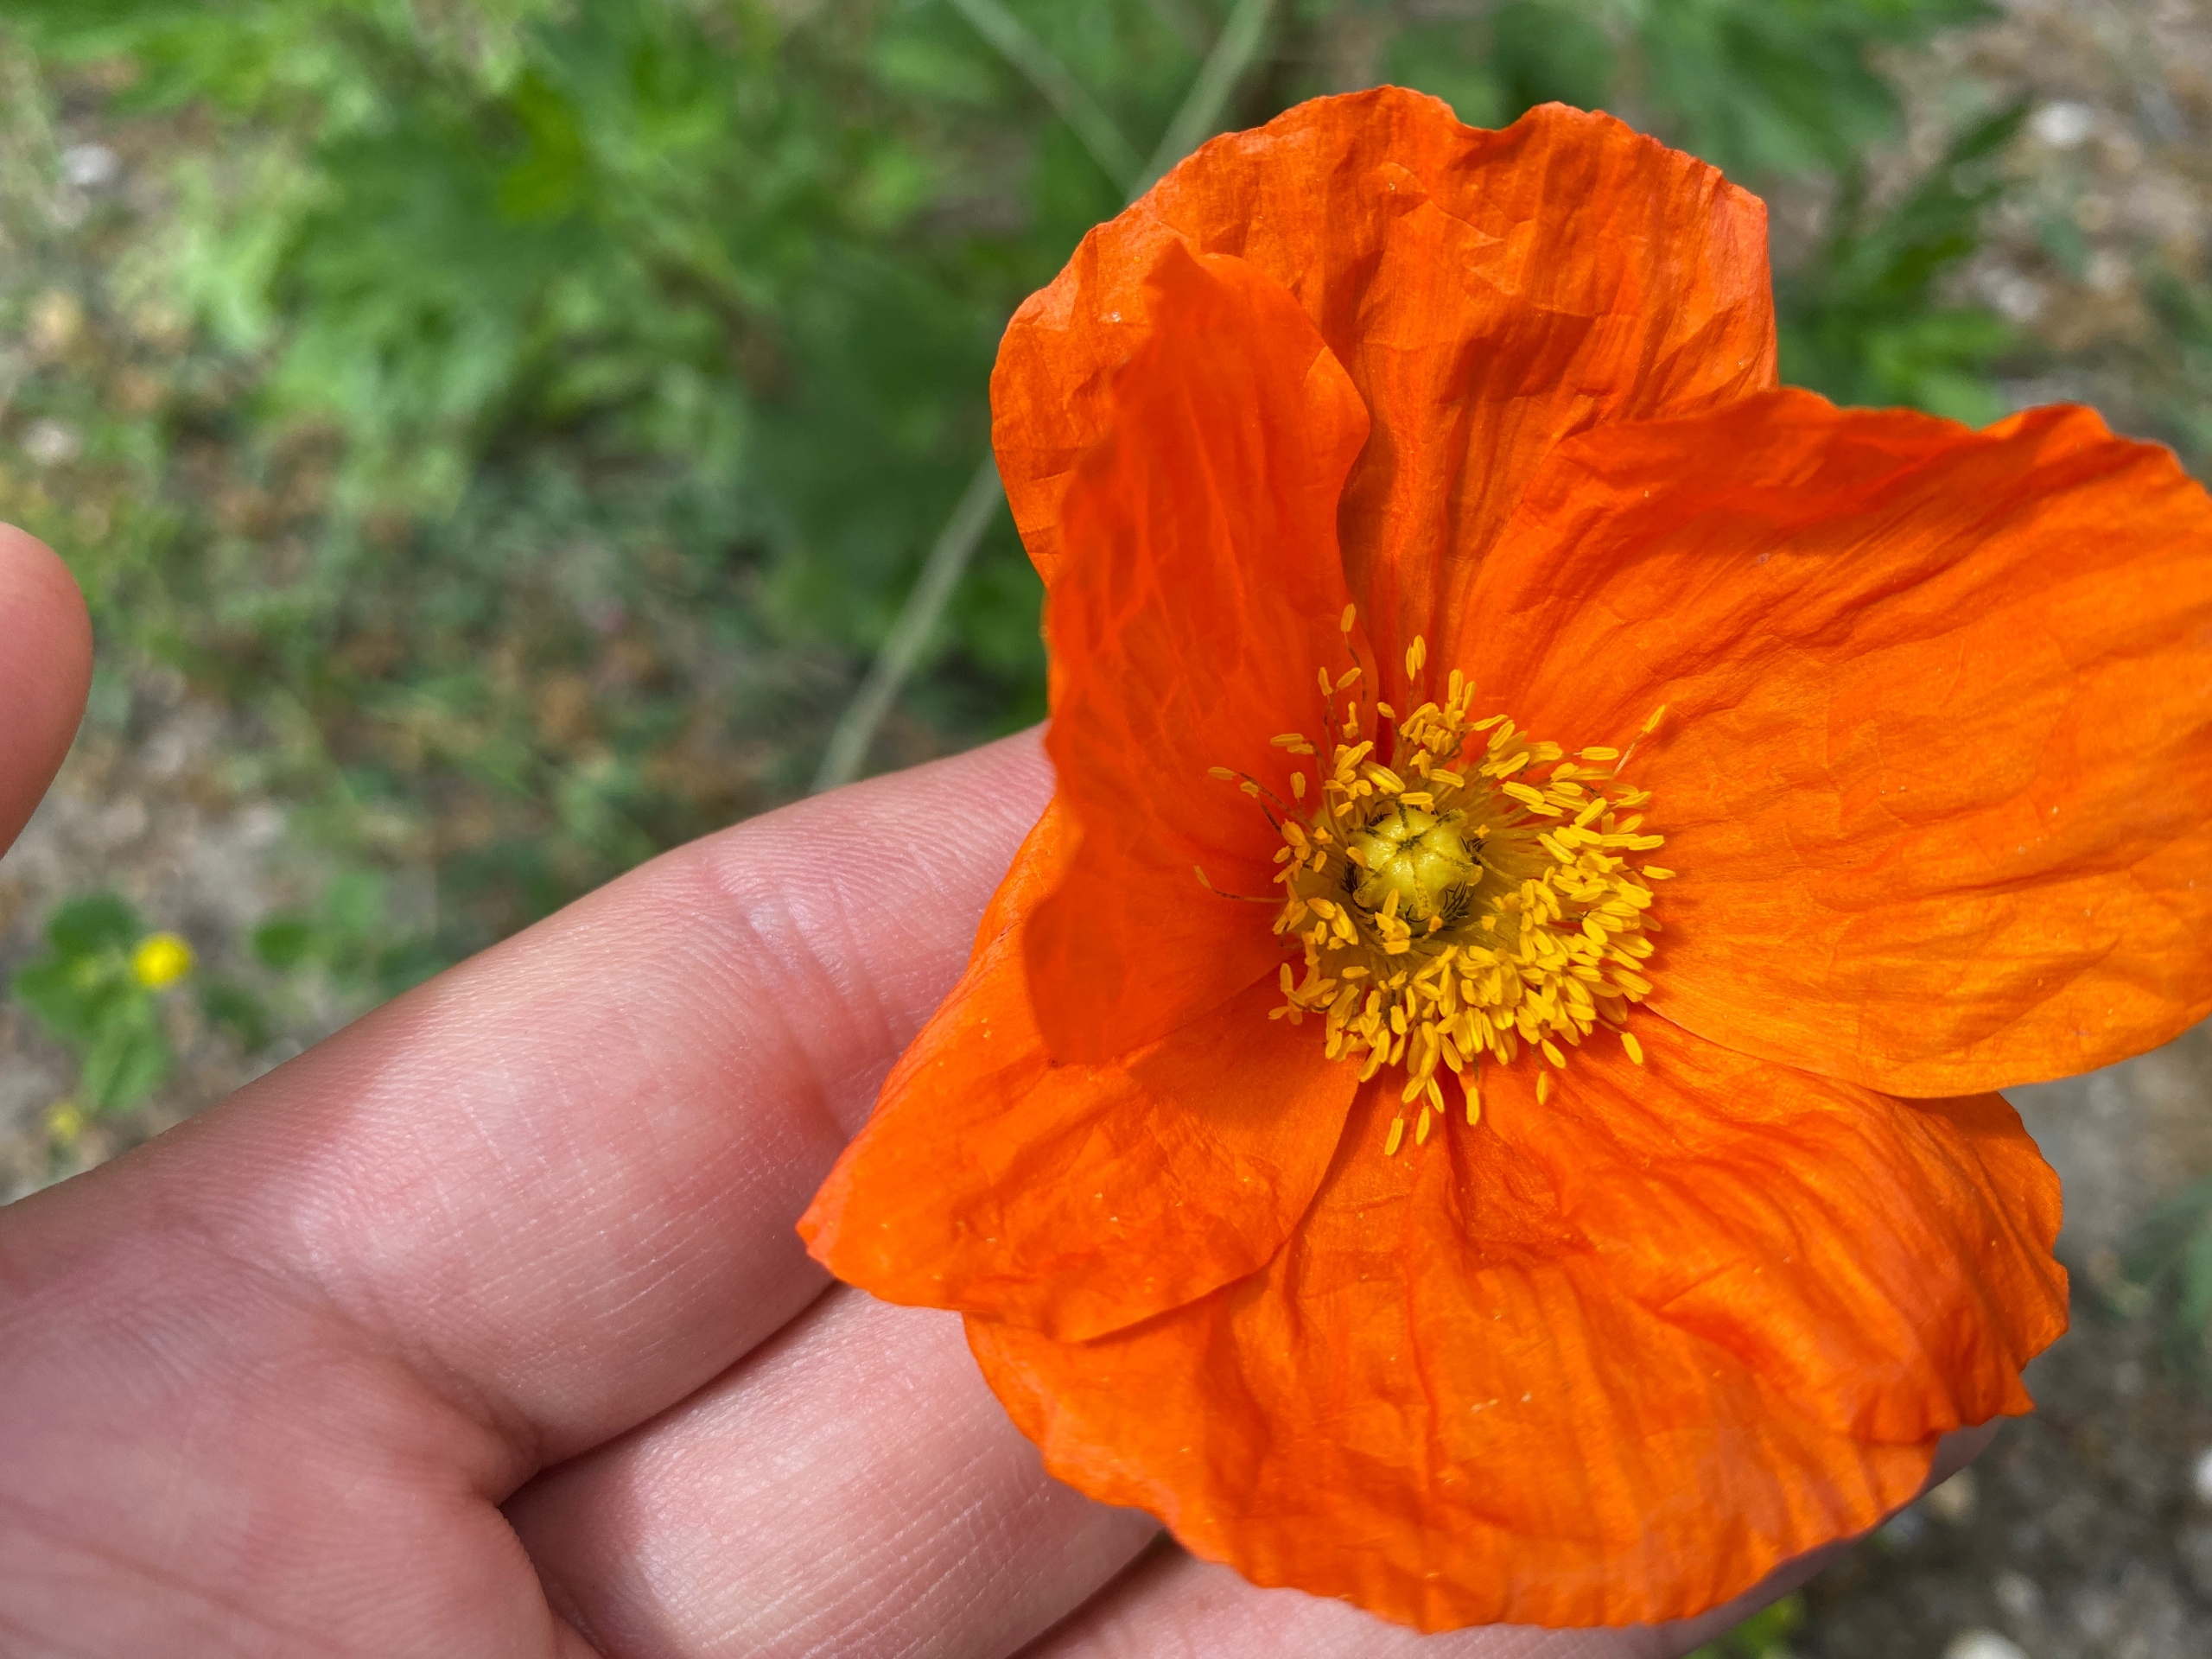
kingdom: Plantae
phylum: Tracheophyta
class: Magnoliopsida
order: Ranunculales
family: Papaveraceae
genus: Papaver
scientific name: Papaver croceum
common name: Sibirisk valmue
